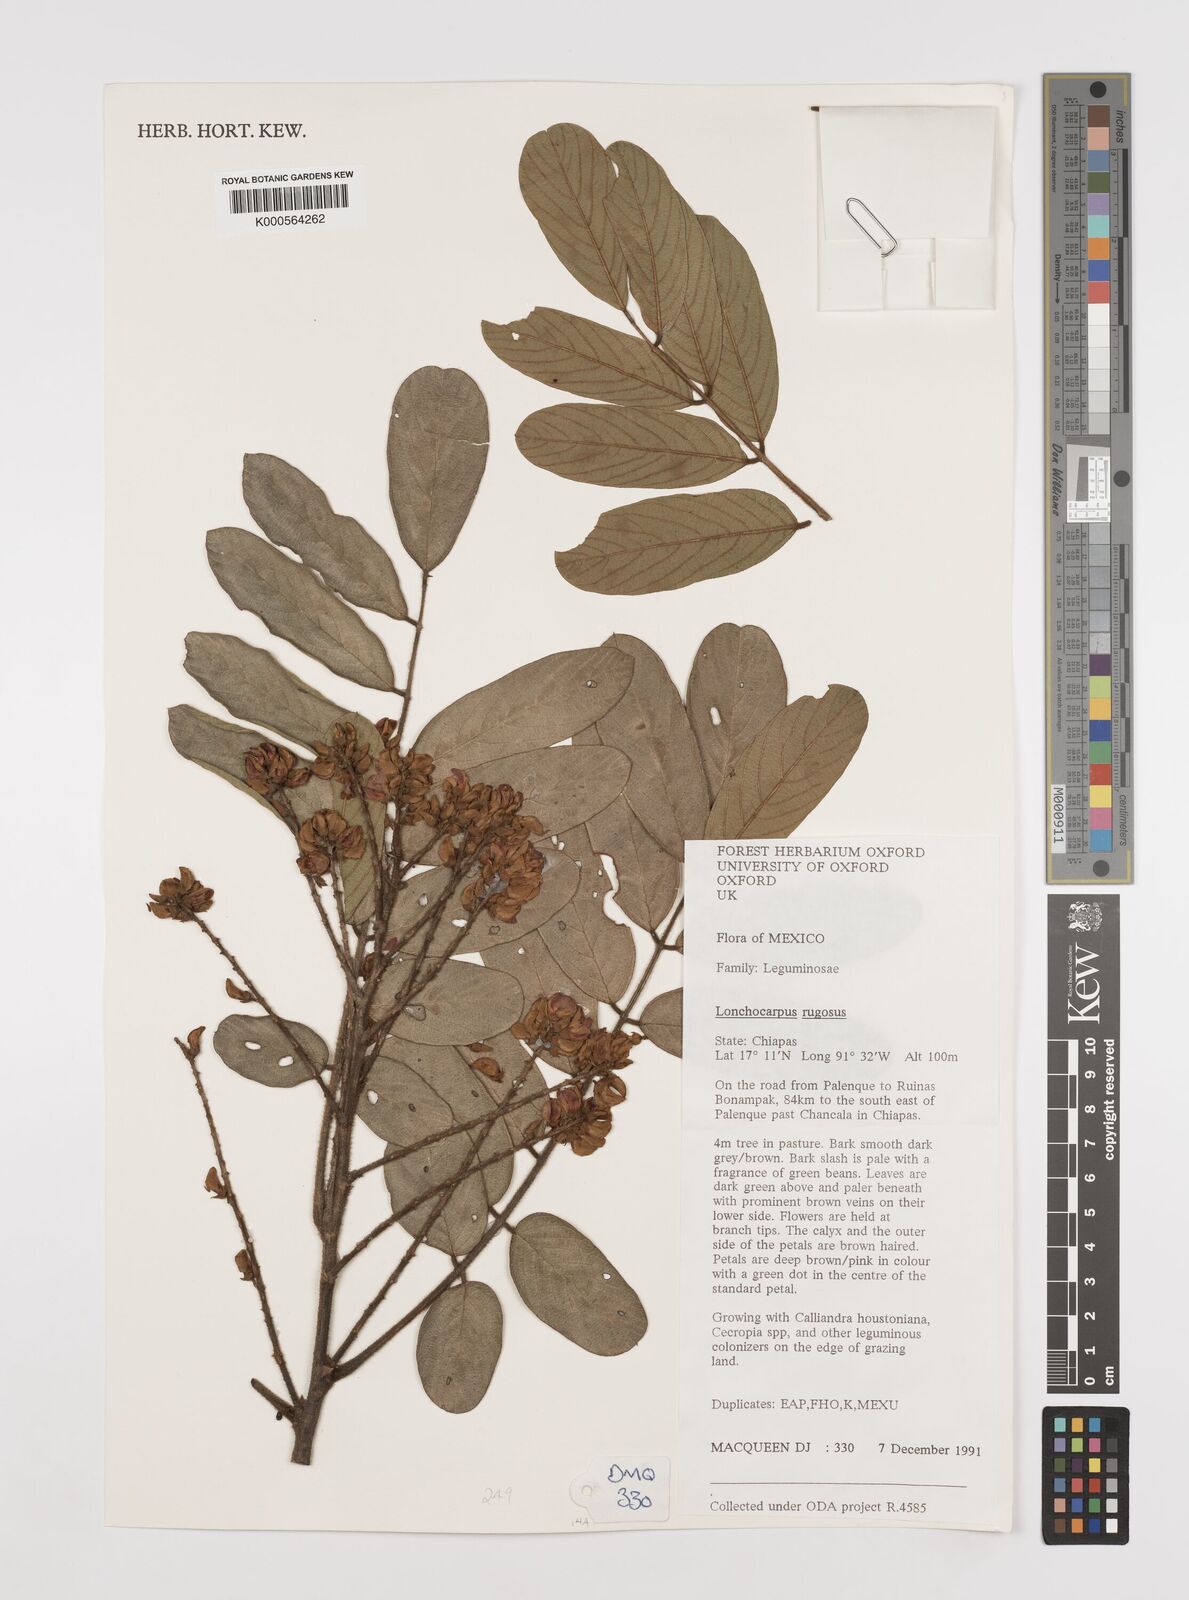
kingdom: Plantae
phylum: Tracheophyta
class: Magnoliopsida
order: Fabales
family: Fabaceae
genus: Lonchocarpus
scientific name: Lonchocarpus rugosus
